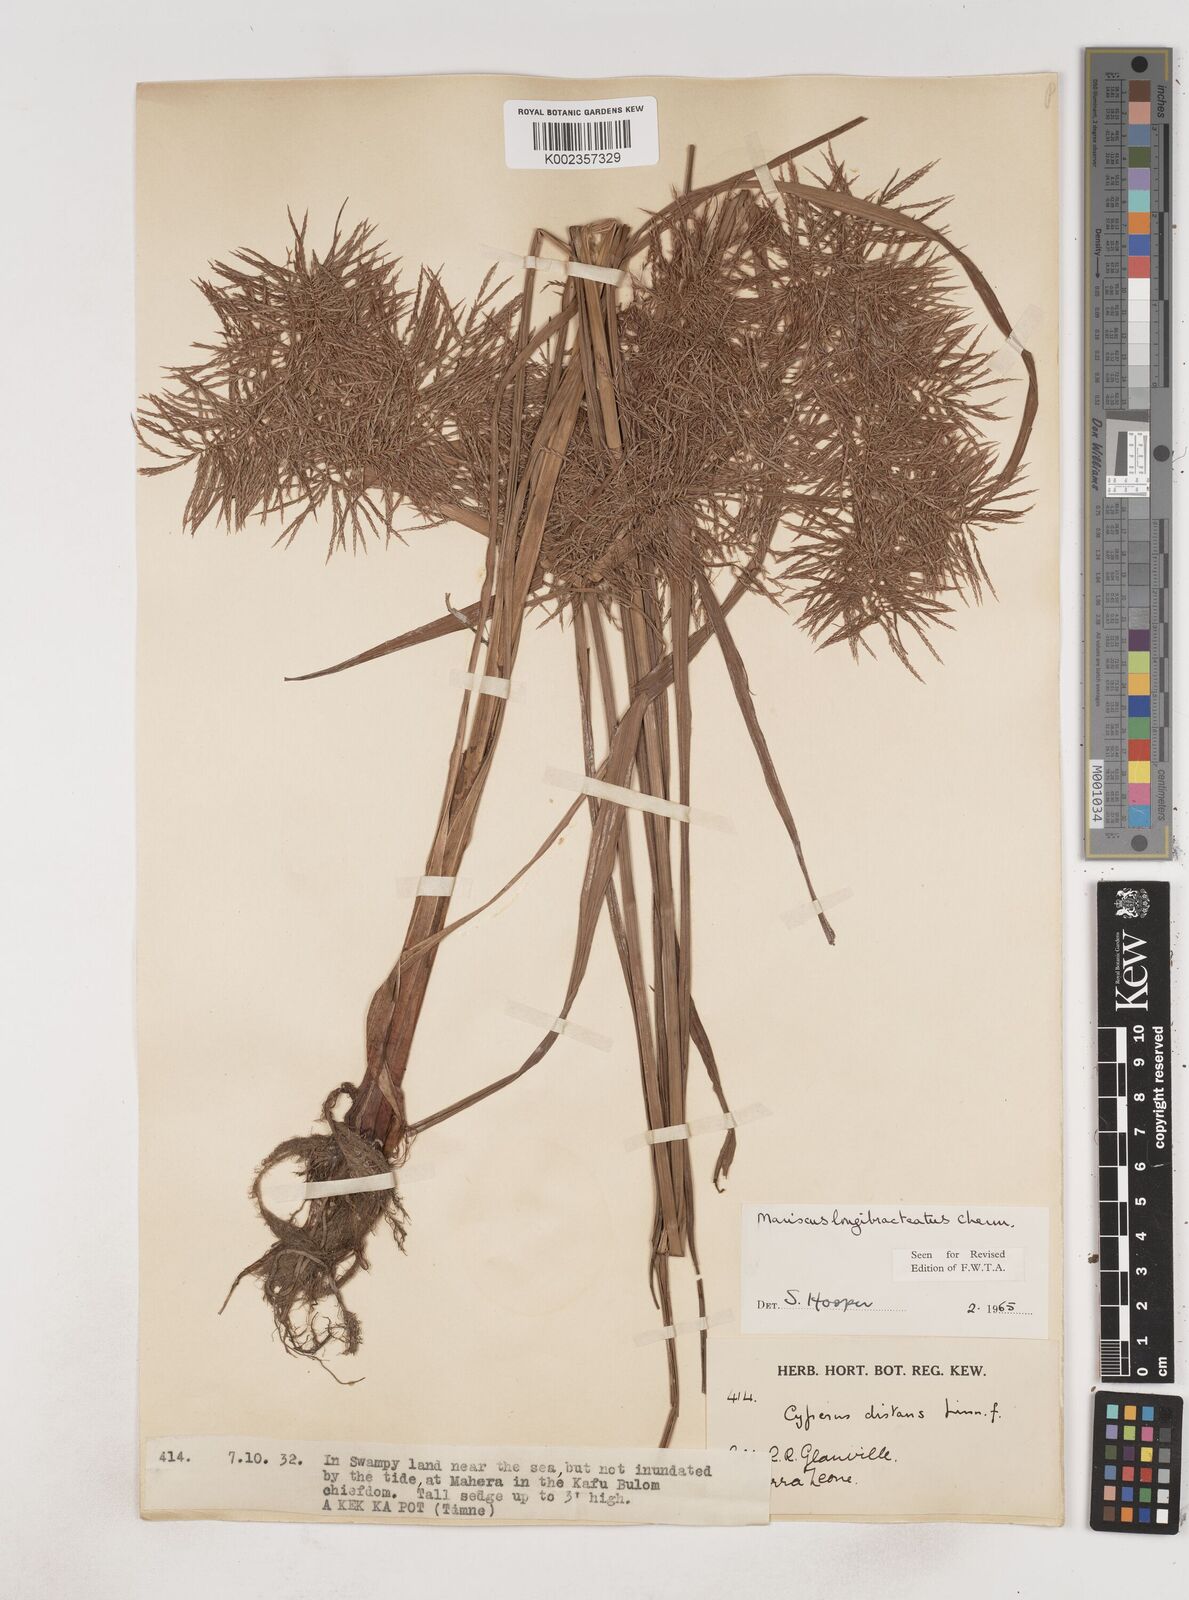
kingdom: Plantae
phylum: Tracheophyta
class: Liliopsida
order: Poales
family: Cyperaceae
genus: Cyperus
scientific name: Cyperus distans
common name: Slender cyperus
